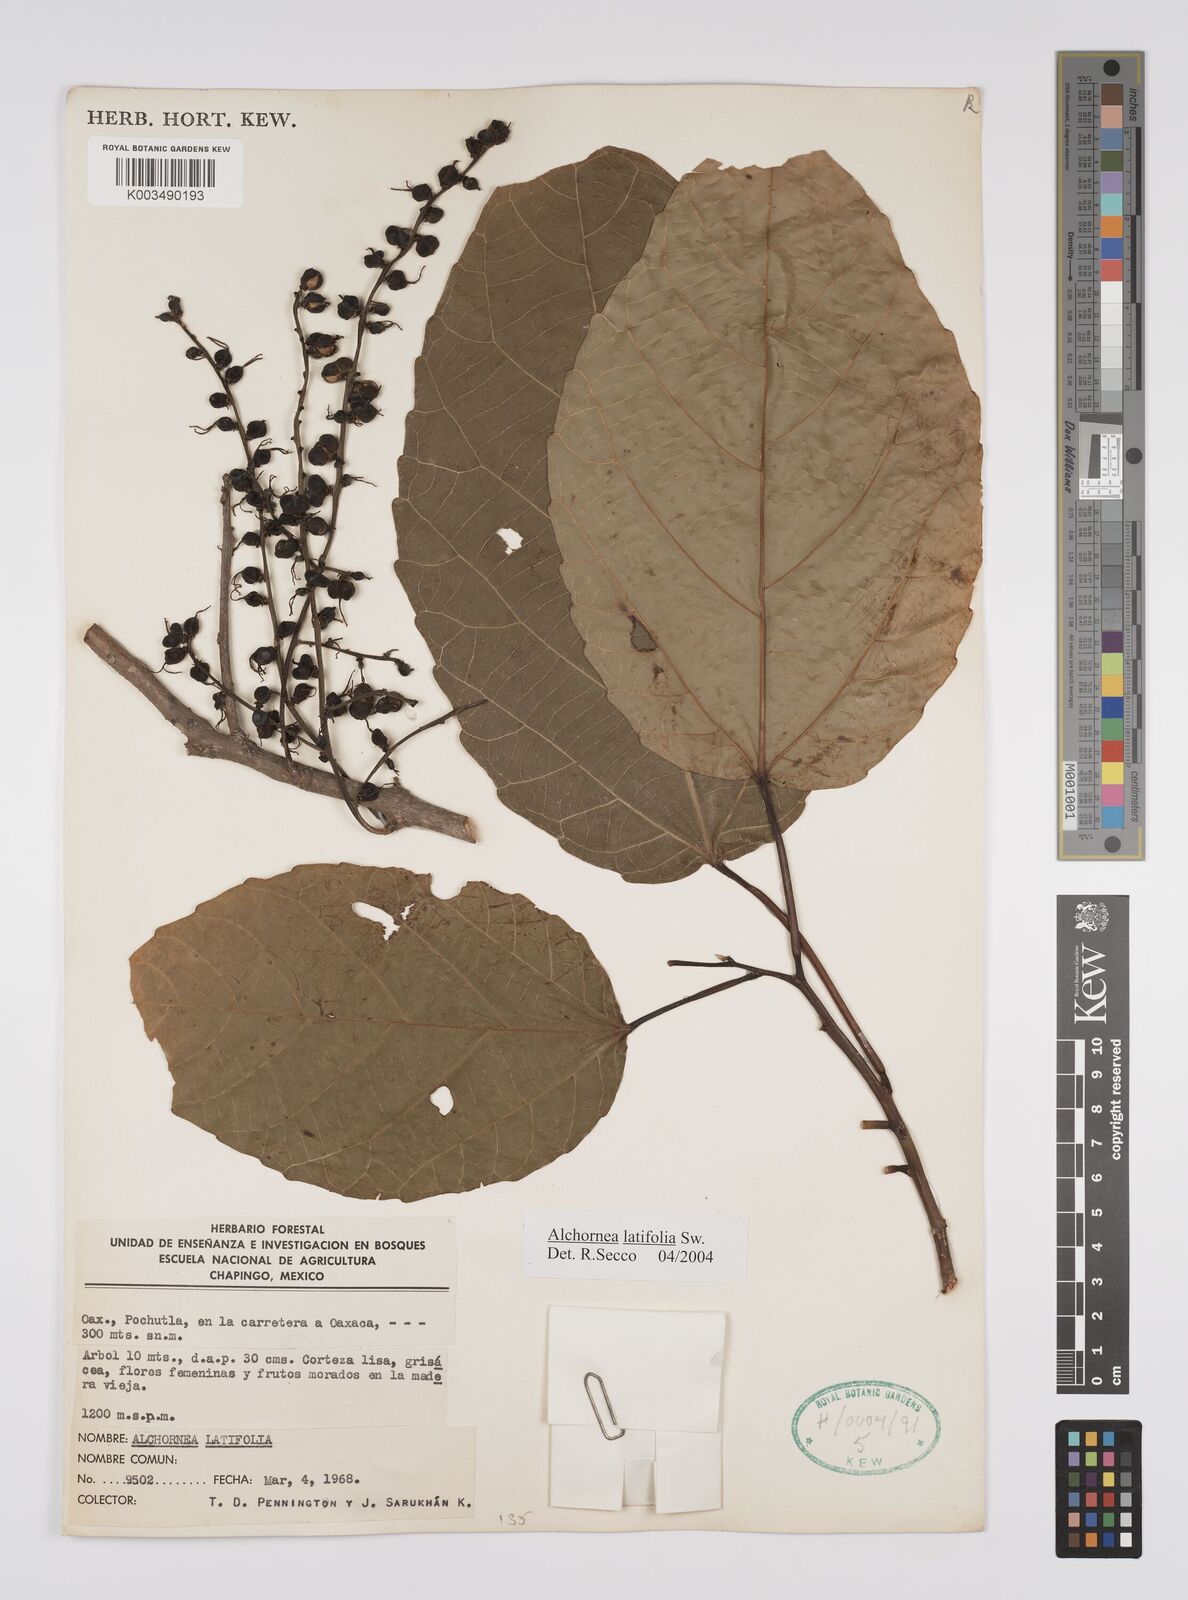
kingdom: Plantae
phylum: Tracheophyta
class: Magnoliopsida
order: Malpighiales
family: Euphorbiaceae
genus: Alchornea
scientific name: Alchornea latifolia
